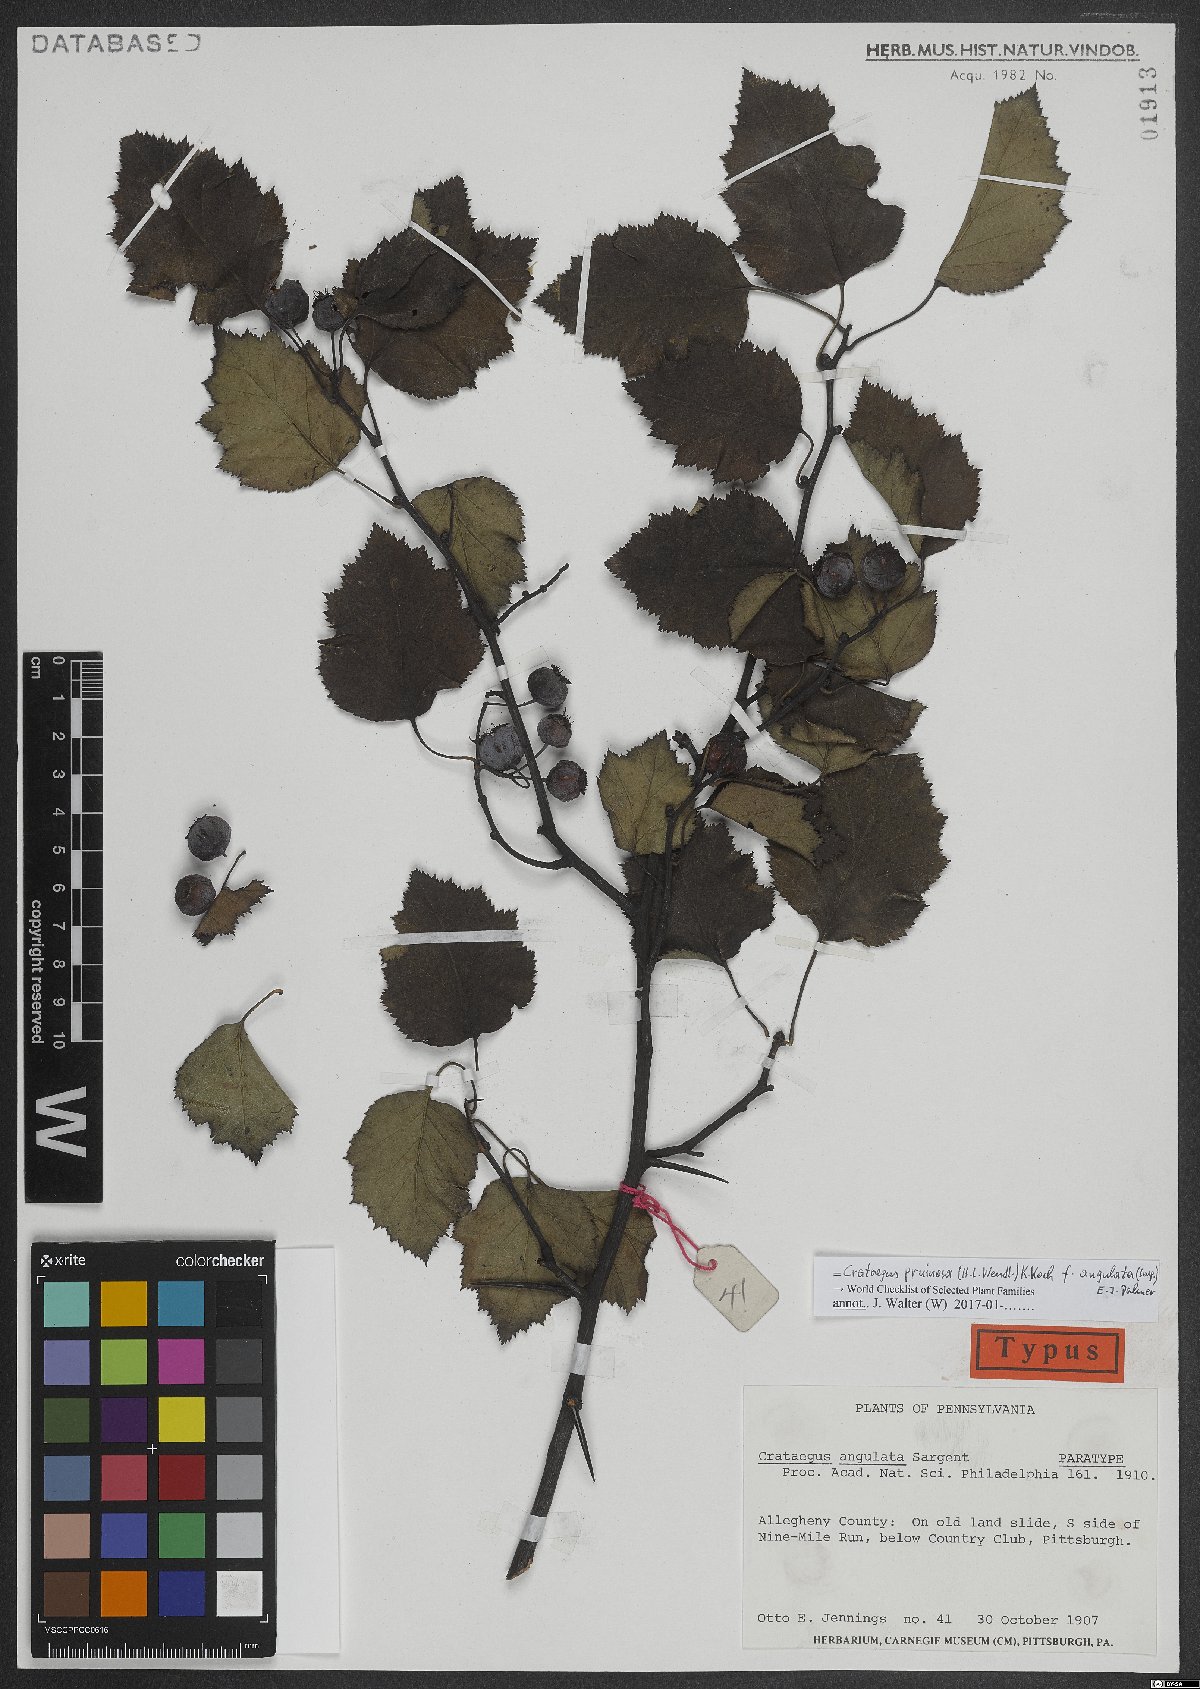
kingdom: Plantae
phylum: Tracheophyta
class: Magnoliopsida
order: Rosales
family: Rosaceae
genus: Crataegus
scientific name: Crataegus pruinosa
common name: Waxy-fruit hawthorn
